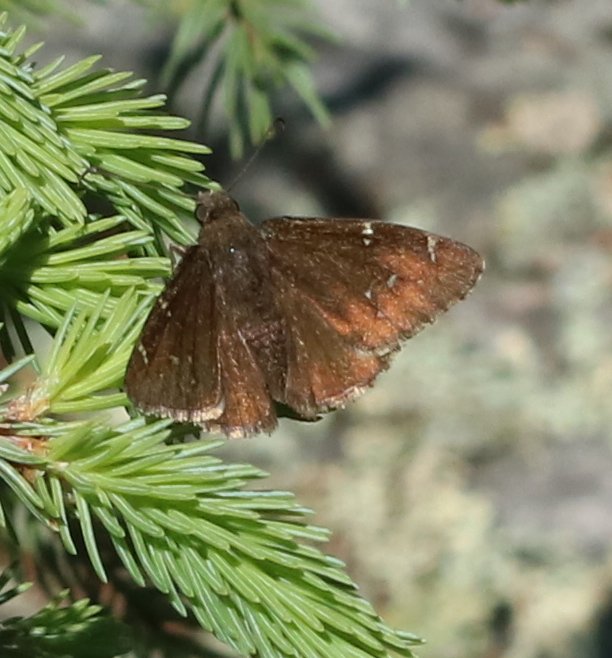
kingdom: Animalia
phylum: Arthropoda
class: Insecta
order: Lepidoptera
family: Hesperiidae
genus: Autochton
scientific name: Autochton
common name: Northern Cloudywing
